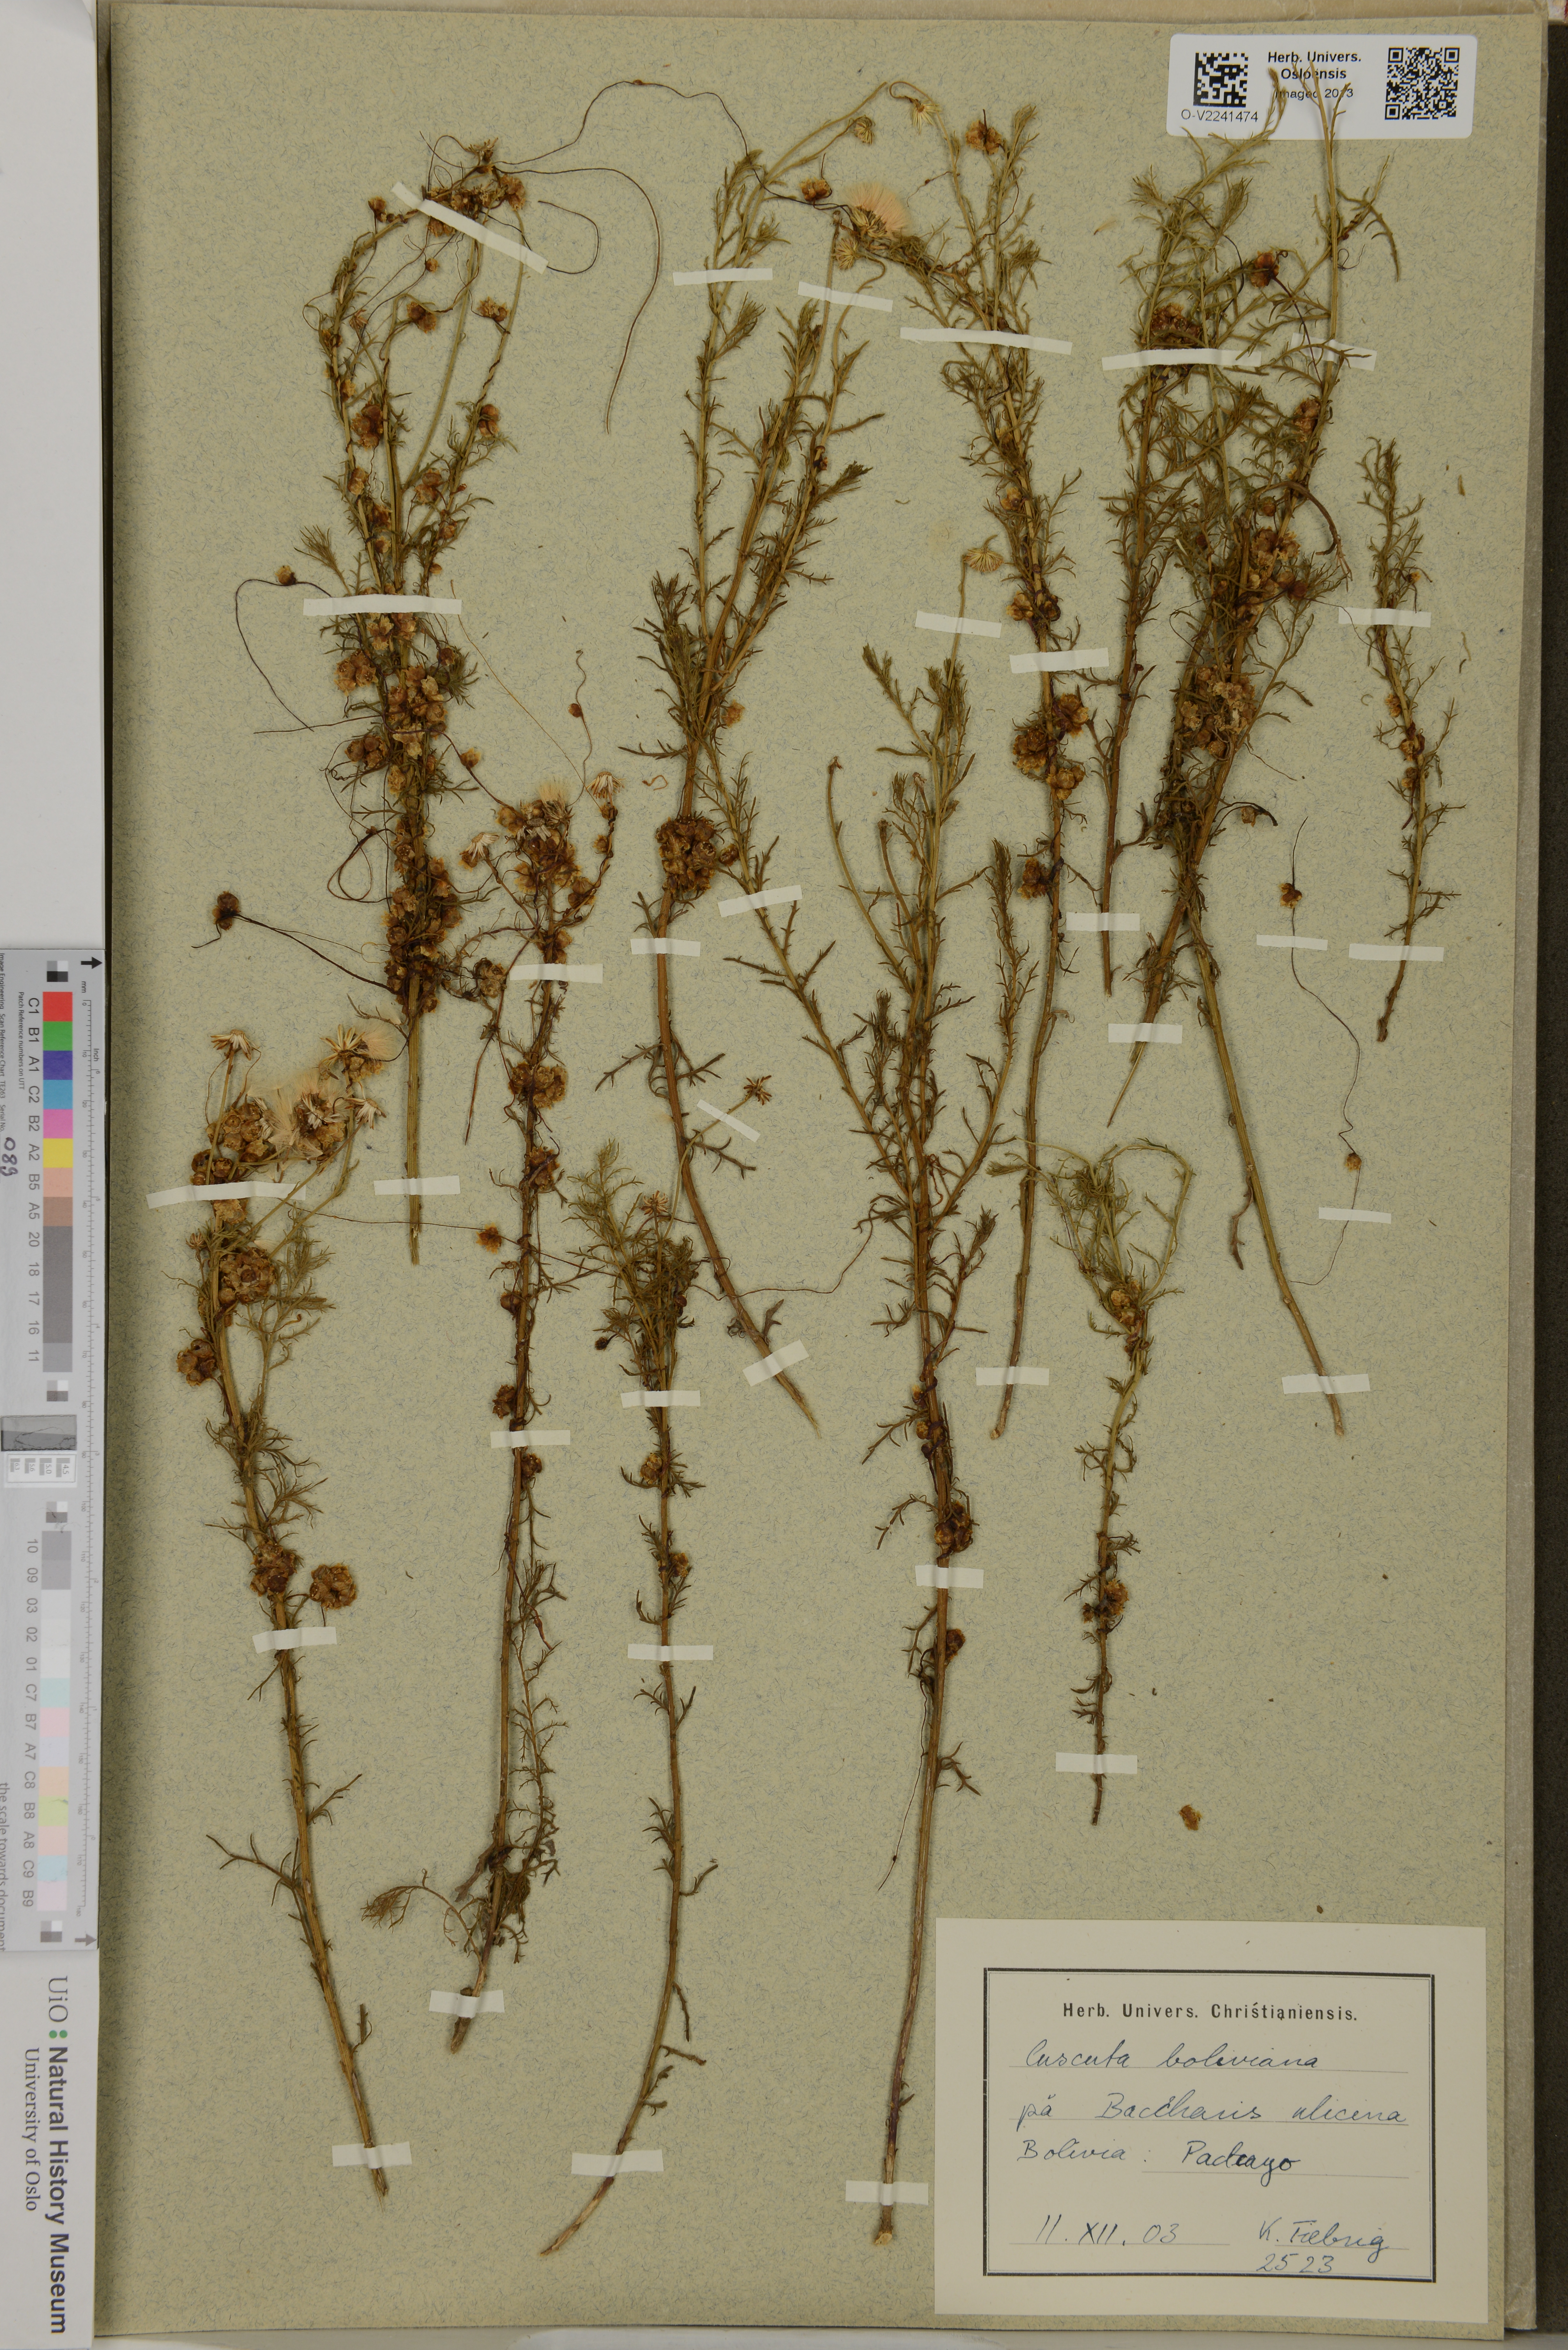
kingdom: Plantae
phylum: Tracheophyta
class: Magnoliopsida
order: Solanales
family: Convolvulaceae
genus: Cuscuta
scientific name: Cuscuta boliviana
